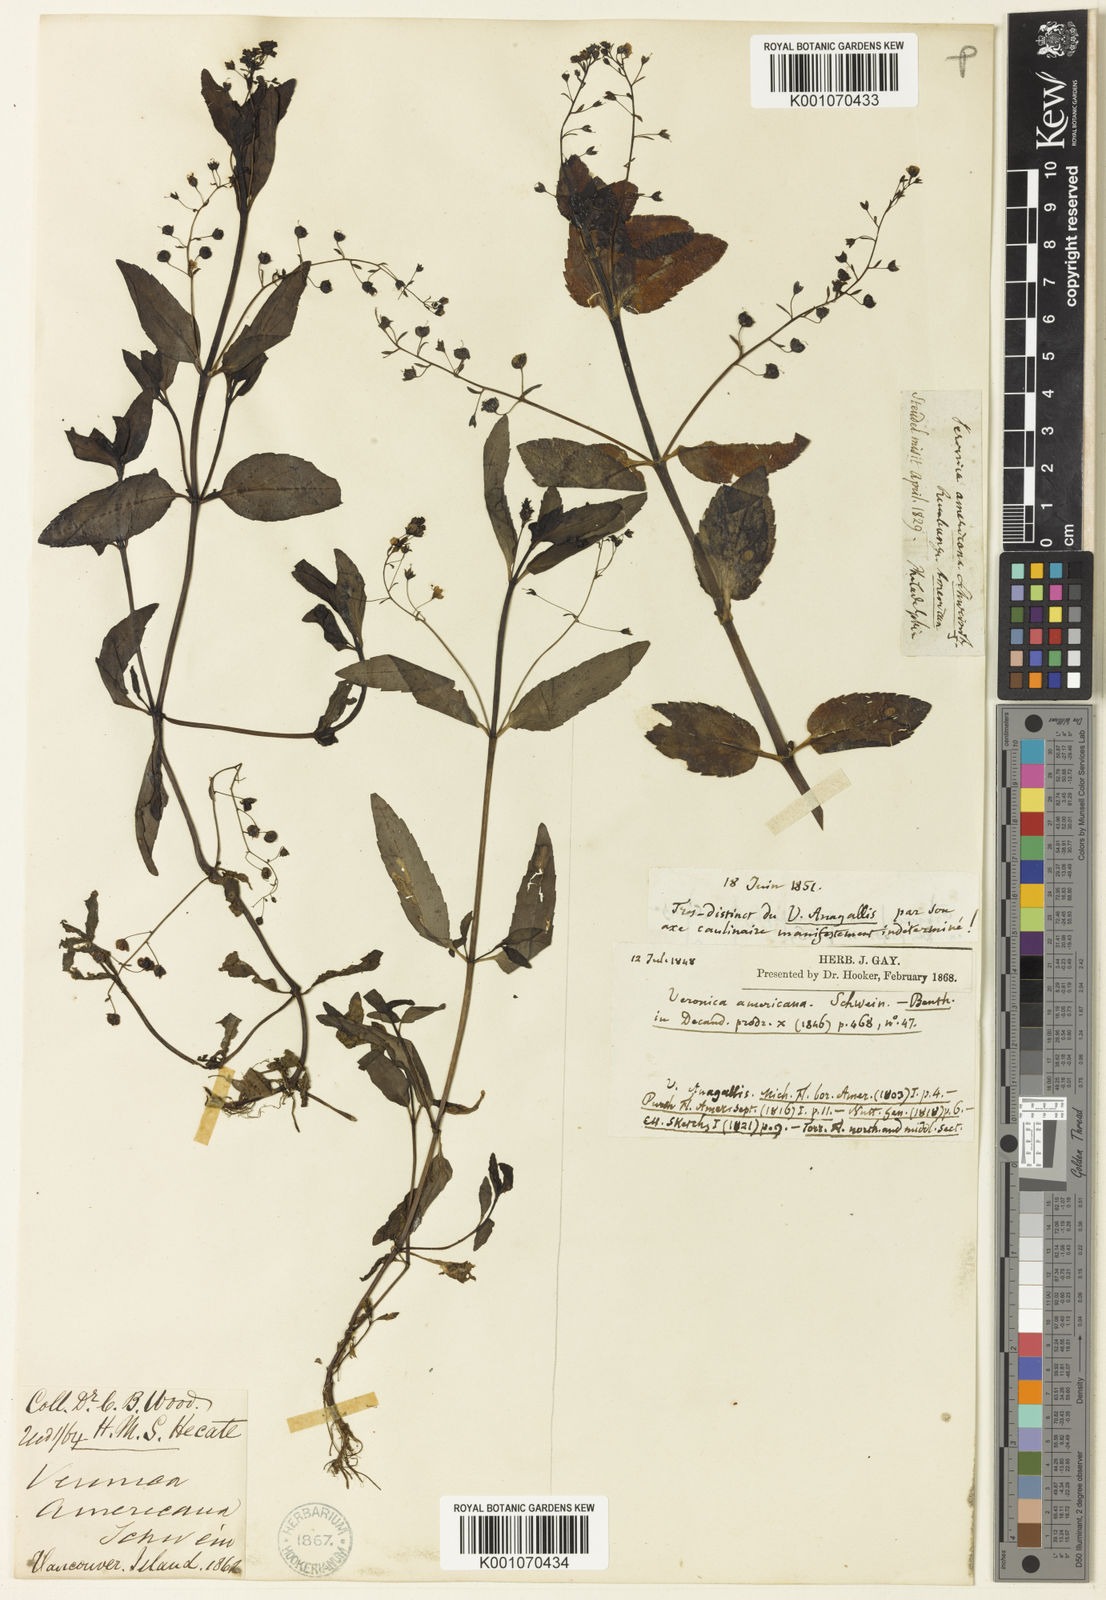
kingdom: Plantae
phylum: Tracheophyta
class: Magnoliopsida
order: Lamiales
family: Plantaginaceae
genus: Veronica
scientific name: Veronica americana
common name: American brooklime
